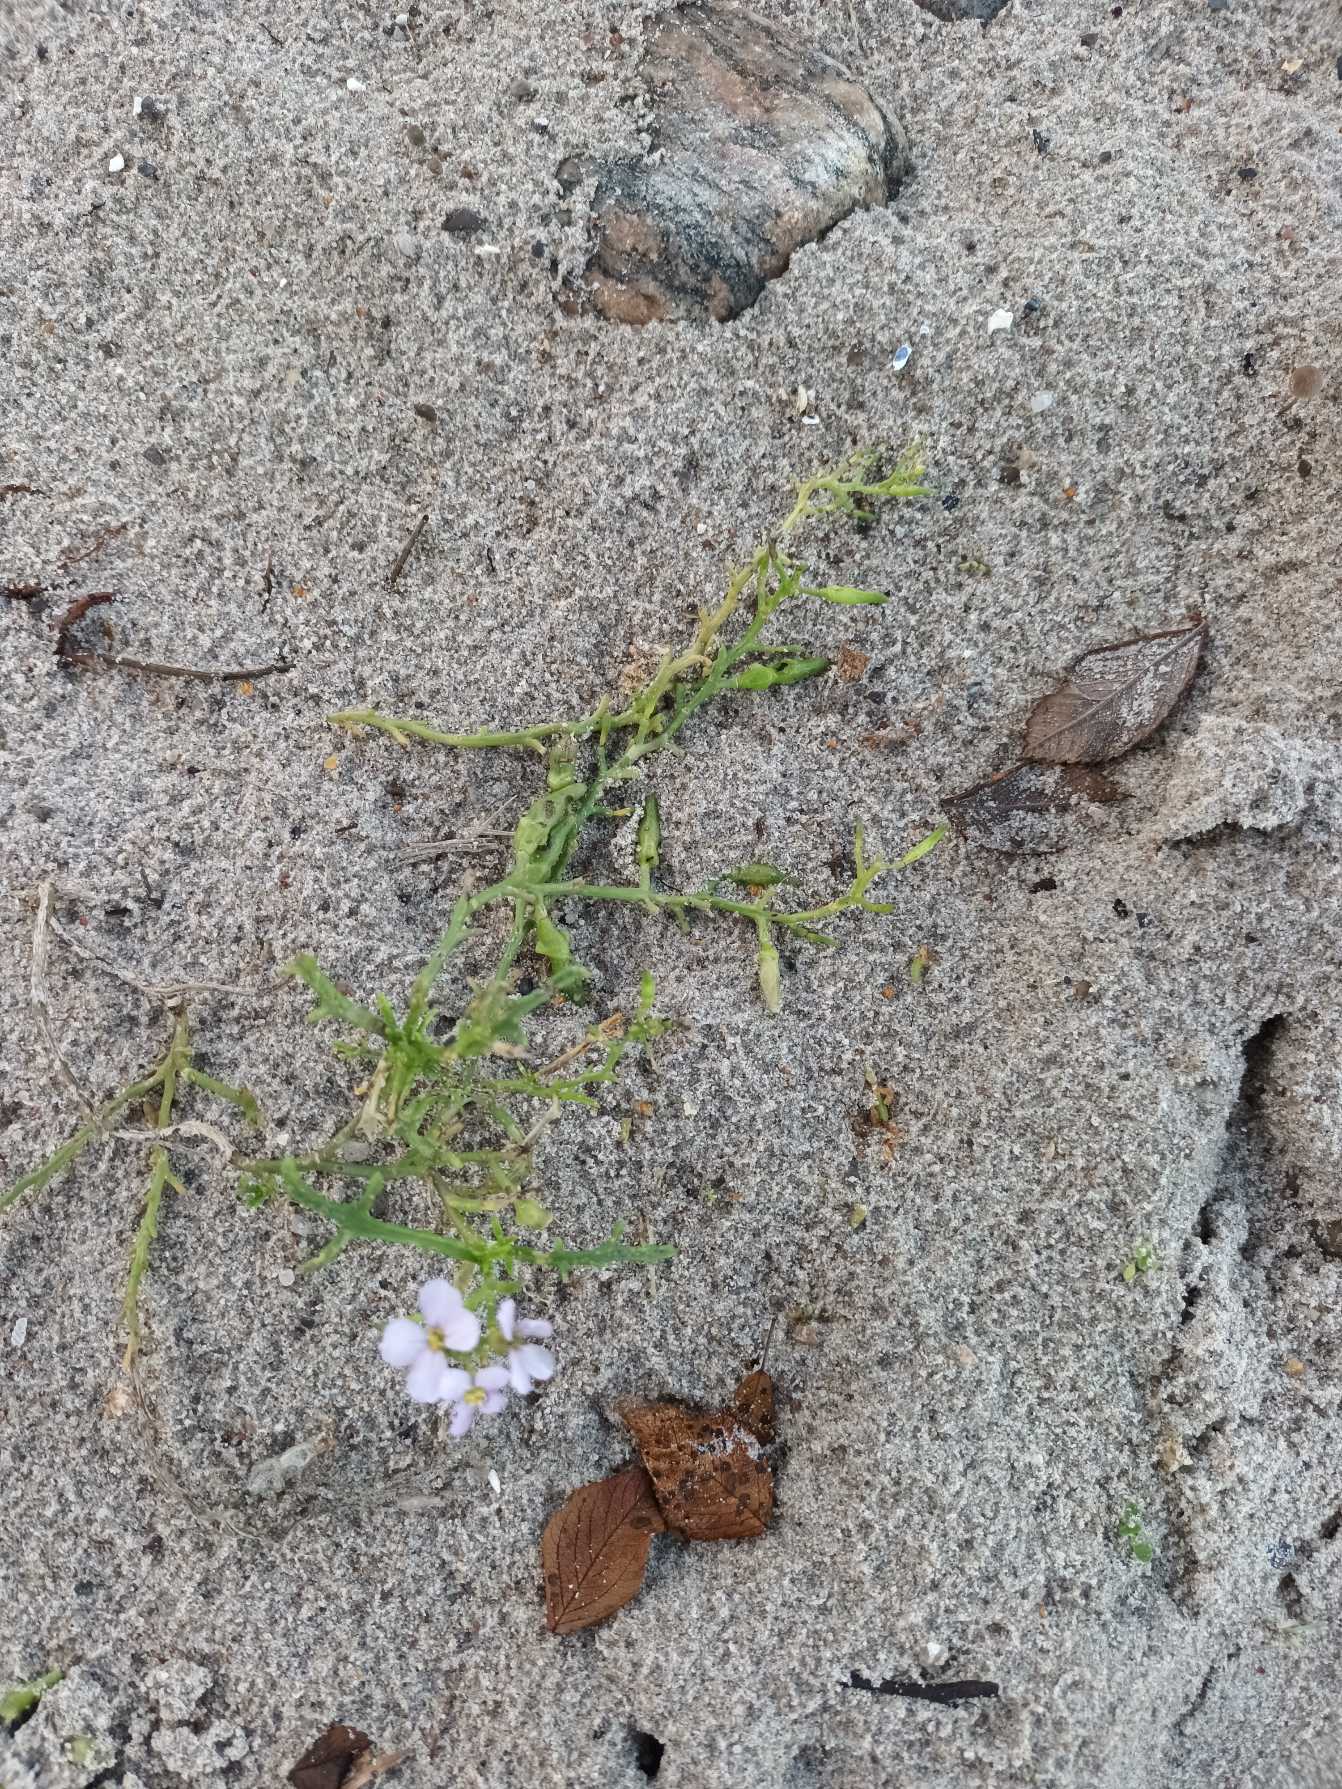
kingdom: Plantae
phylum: Tracheophyta
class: Magnoliopsida
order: Brassicales
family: Brassicaceae
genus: Cakile
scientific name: Cakile maritima
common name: Strandsennep
